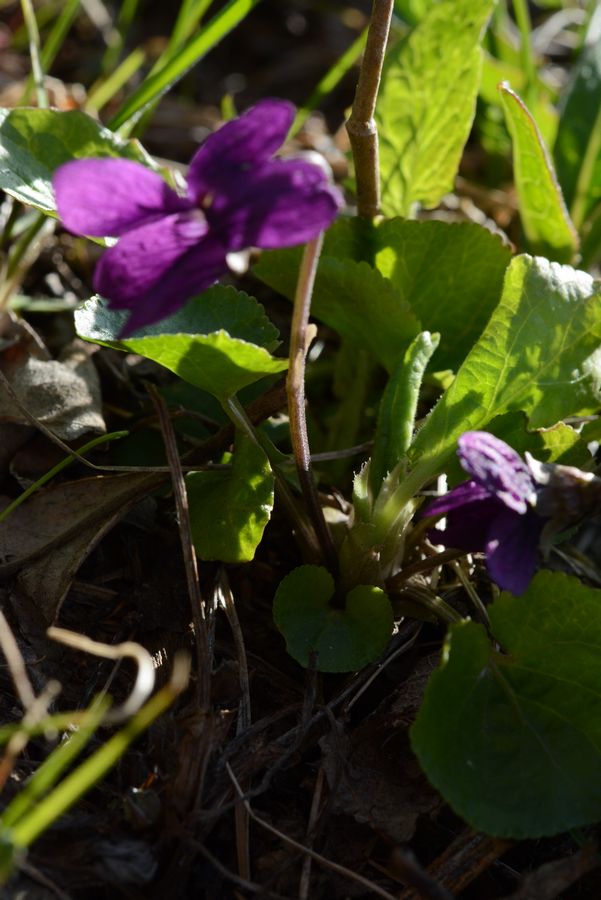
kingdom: Plantae
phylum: Tracheophyta
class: Magnoliopsida
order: Malpighiales
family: Violaceae
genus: Viola
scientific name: Viola odorata
